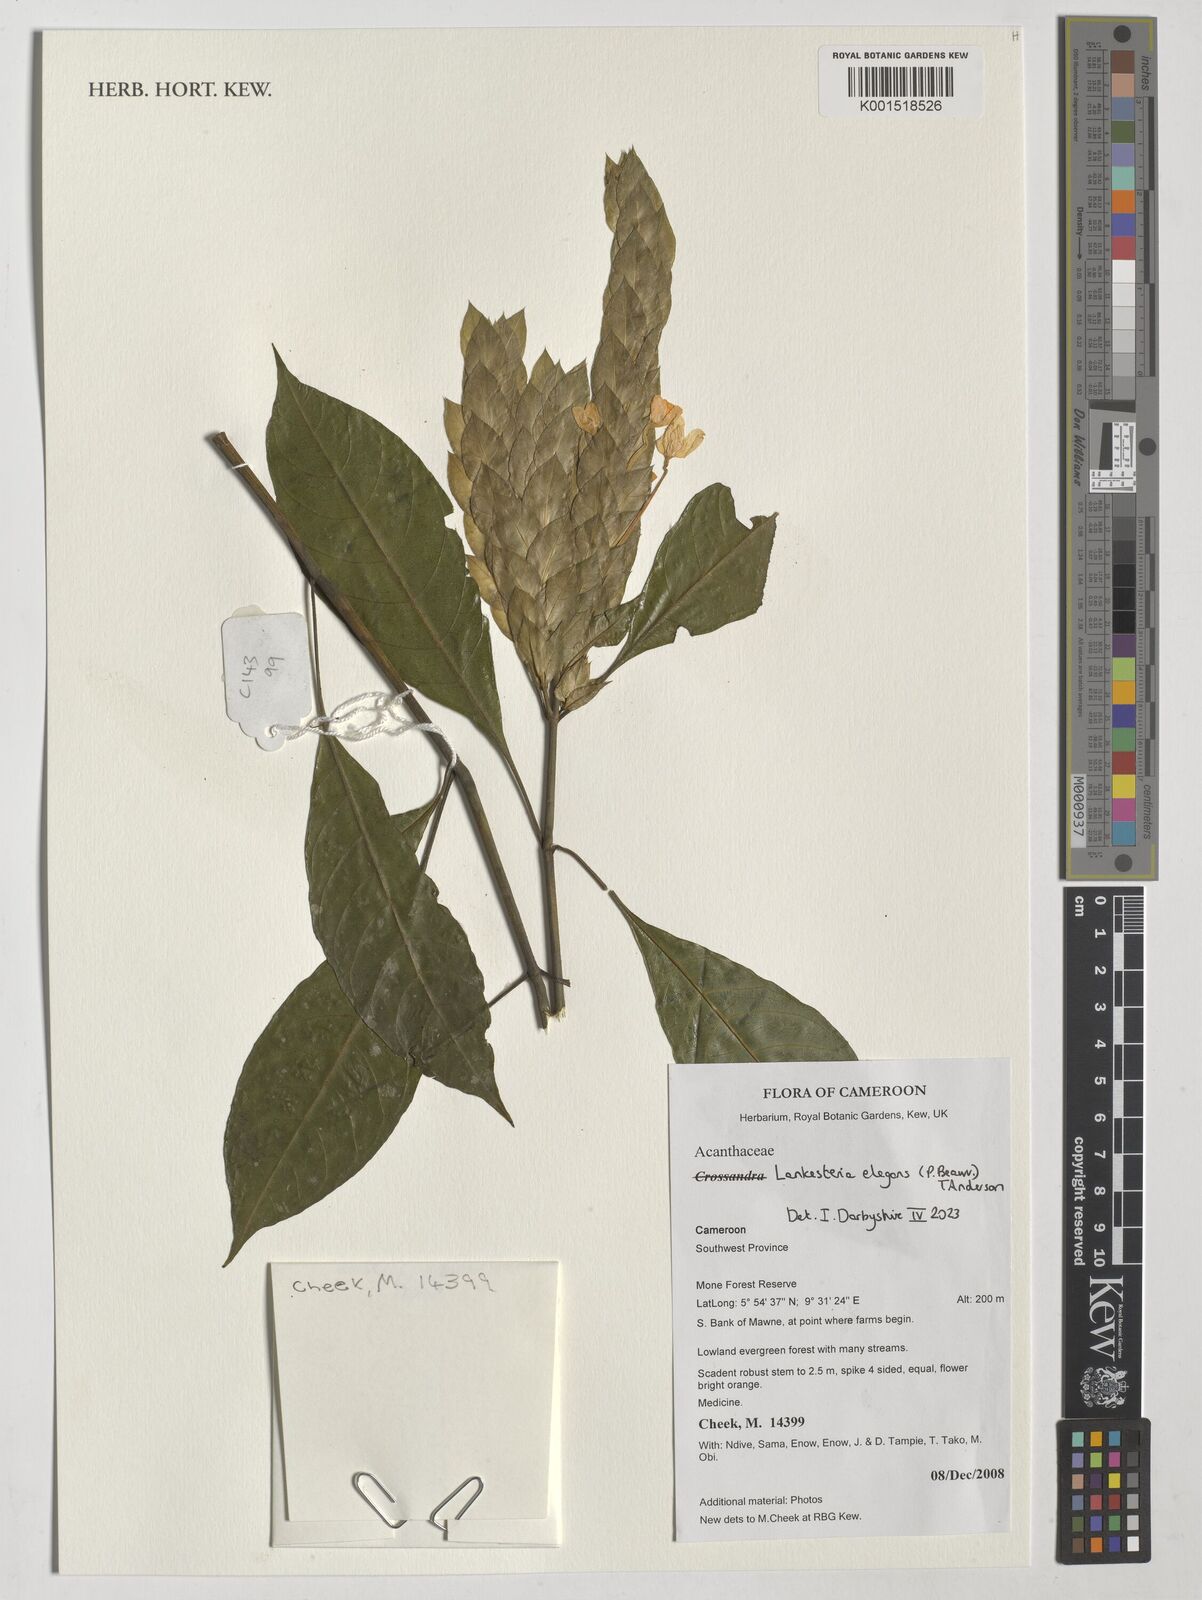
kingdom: Plantae
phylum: Tracheophyta
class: Magnoliopsida
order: Lamiales
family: Acanthaceae
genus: Lankesteria
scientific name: Lankesteria elegans
